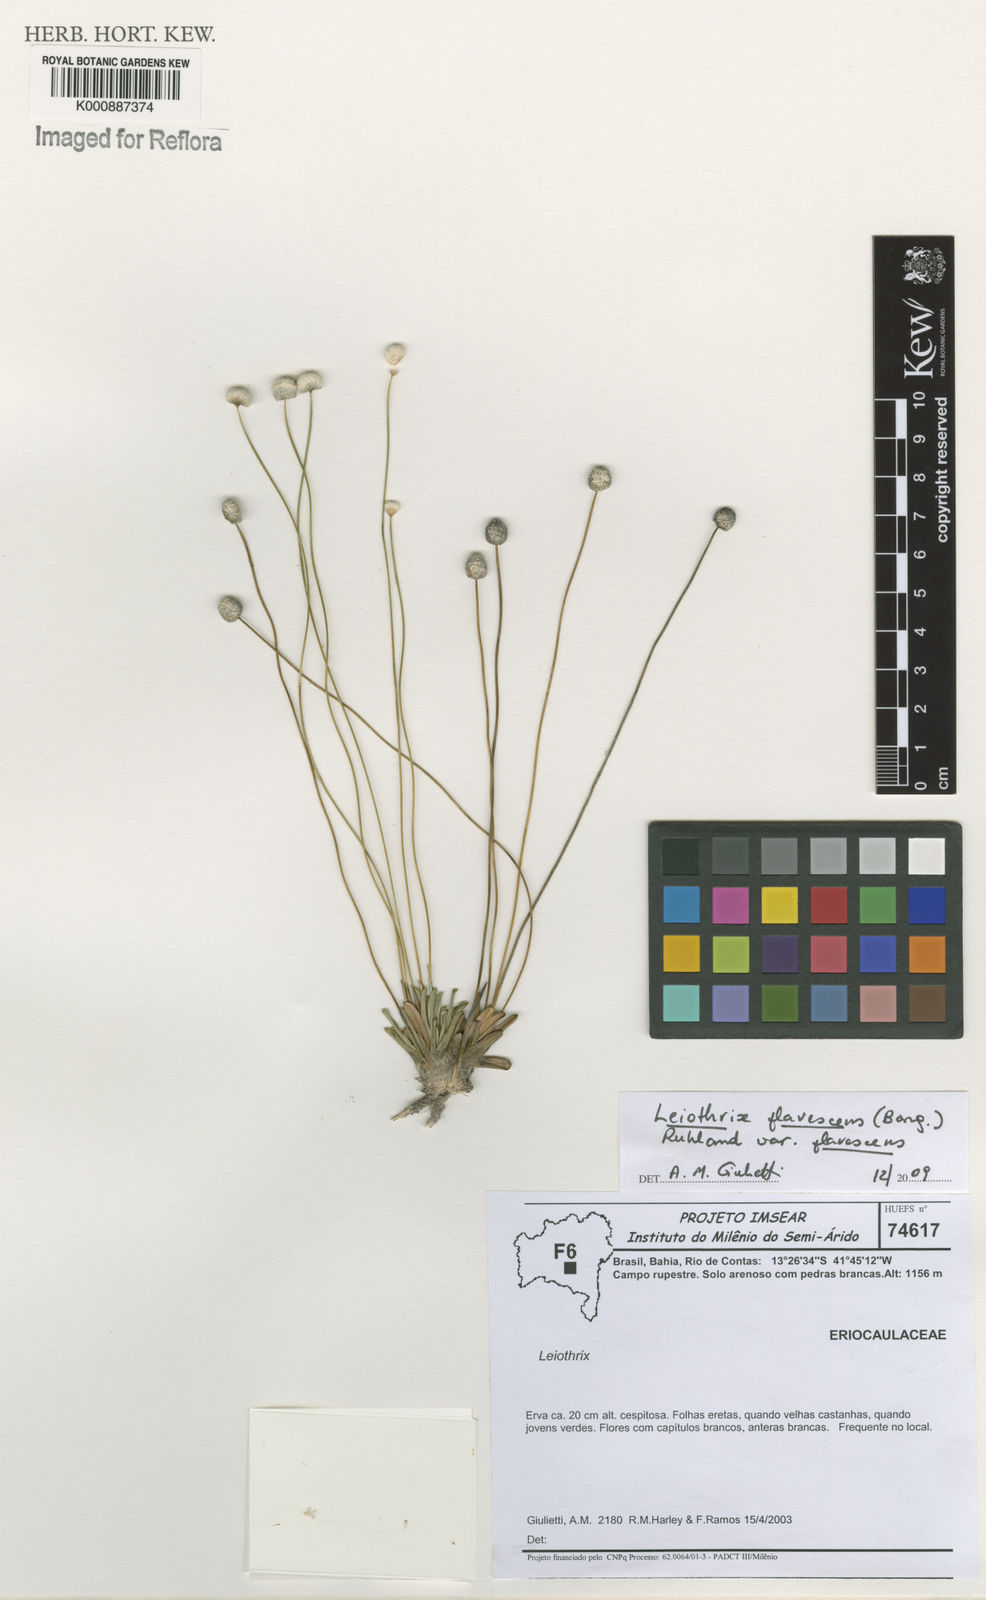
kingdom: Plantae
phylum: Tracheophyta
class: Liliopsida
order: Poales
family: Eriocaulaceae
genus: Leiothrix
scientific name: Leiothrix flavescens
